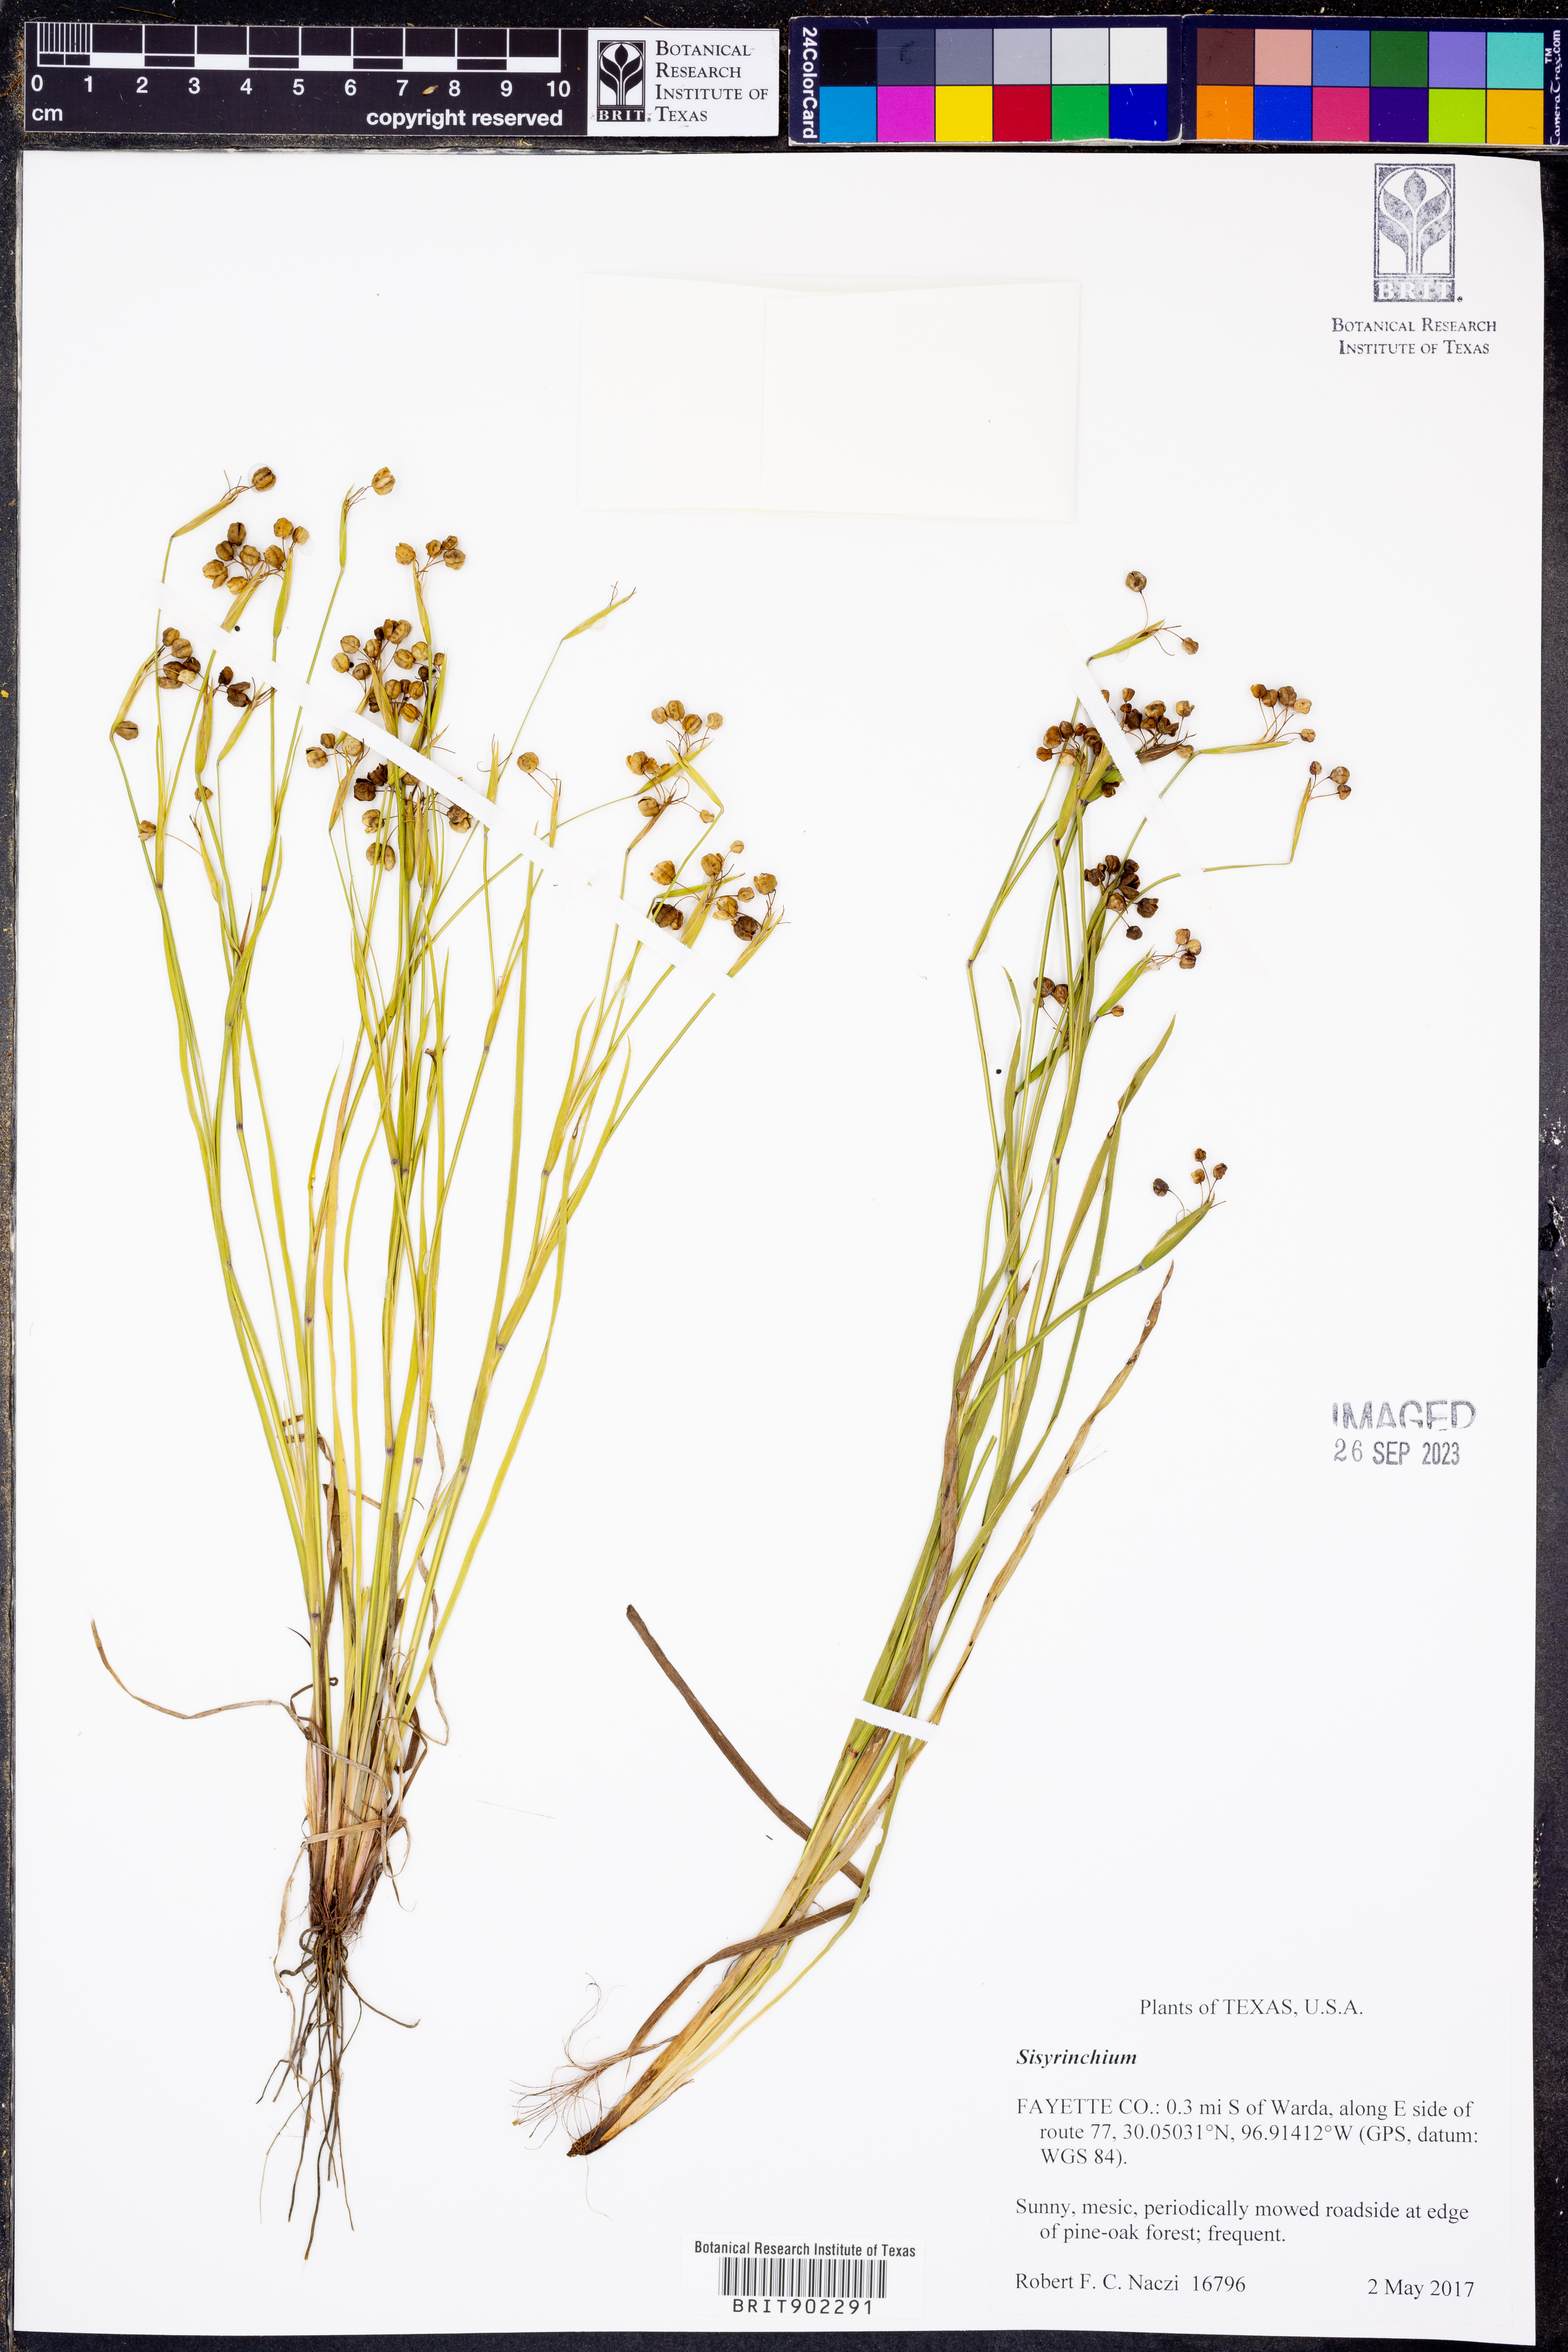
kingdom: Plantae
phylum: Tracheophyta
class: Liliopsida
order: Asparagales
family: Iridaceae
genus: Sisyrinchium
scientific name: Sisyrinchium
